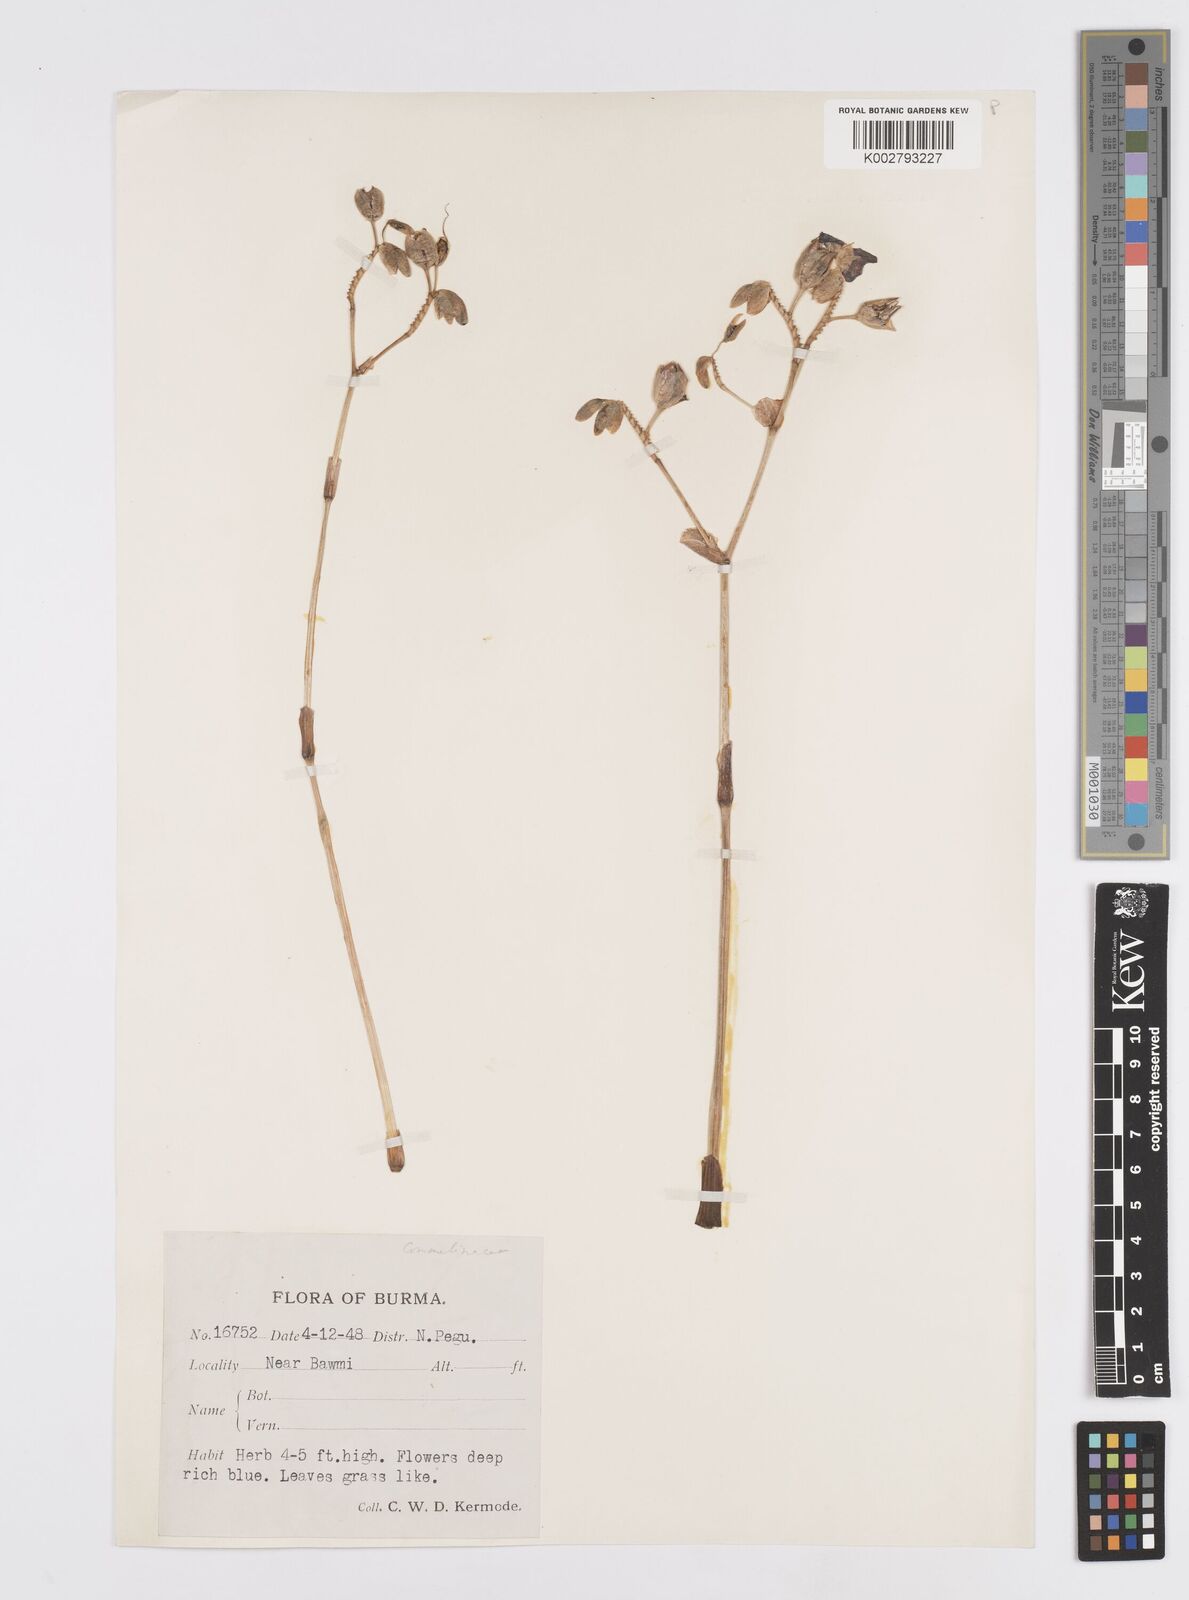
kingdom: Plantae
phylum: Tracheophyta
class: Liliopsida
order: Commelinales
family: Commelinaceae
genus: Murdannia
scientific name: Murdannia gigantea
